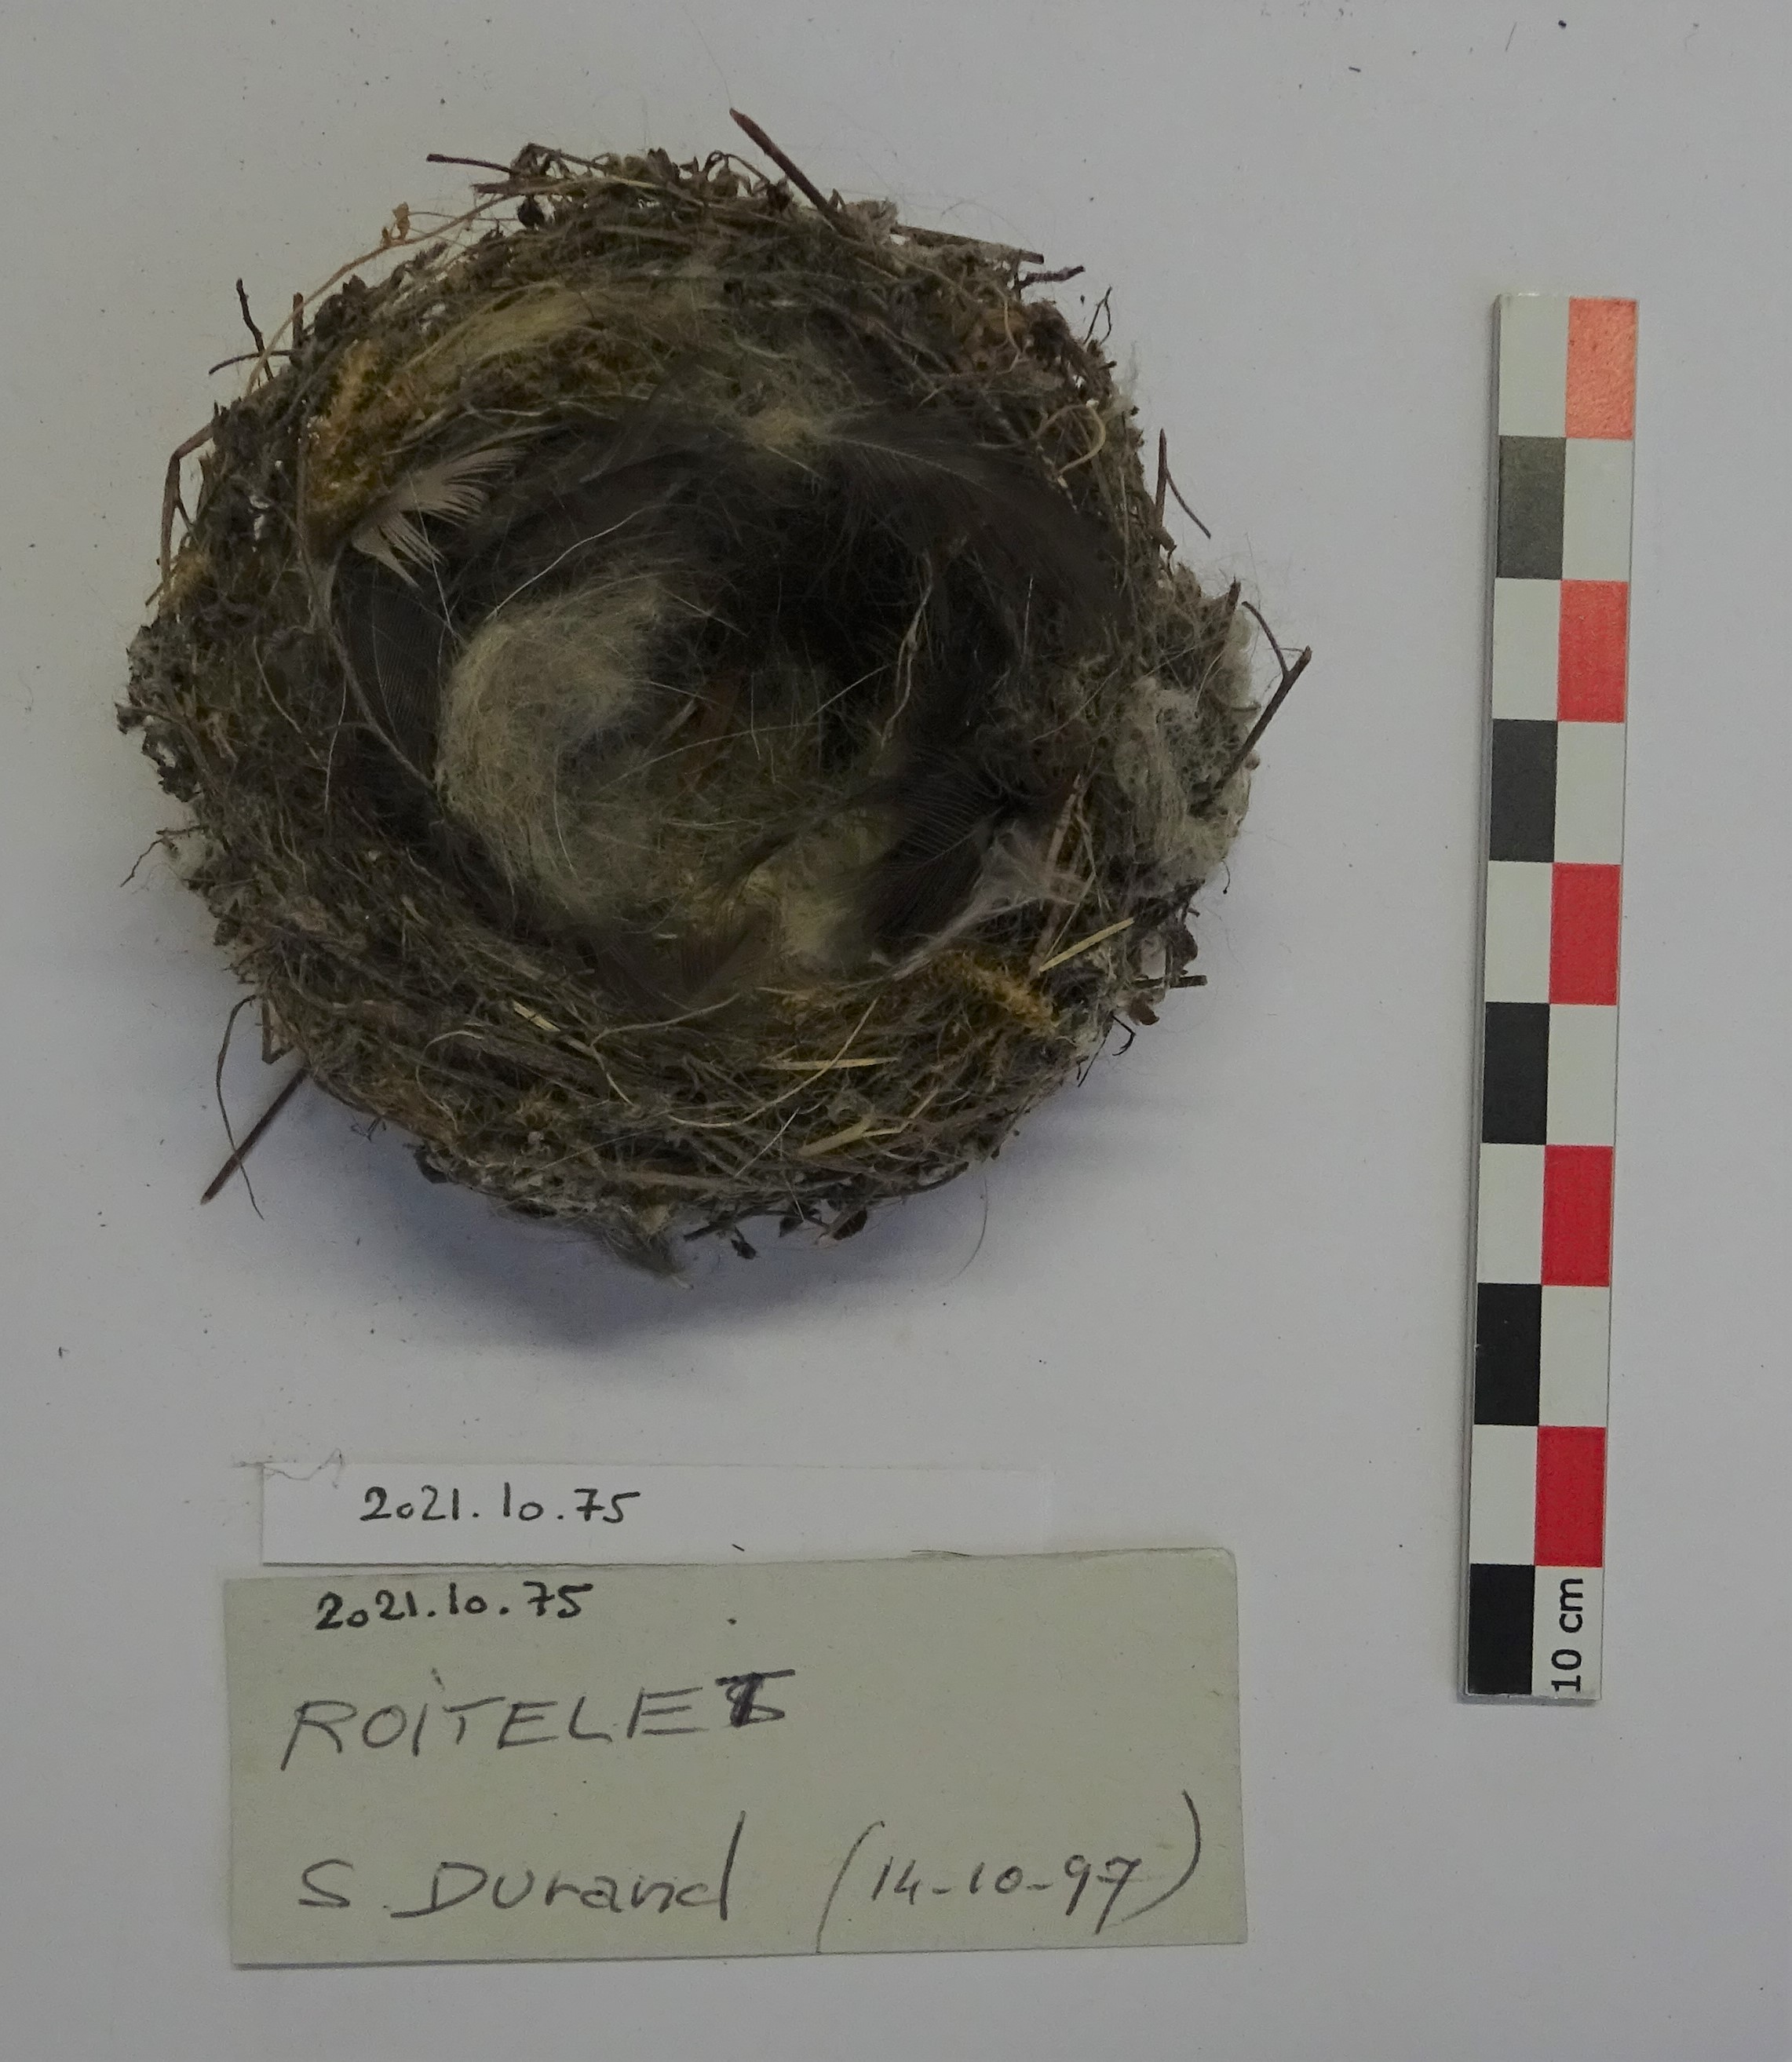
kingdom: Animalia
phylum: Chordata
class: Aves
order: Passeriformes
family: Regulidae
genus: Regulus
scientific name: Regulus regulus
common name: Goldcrest
